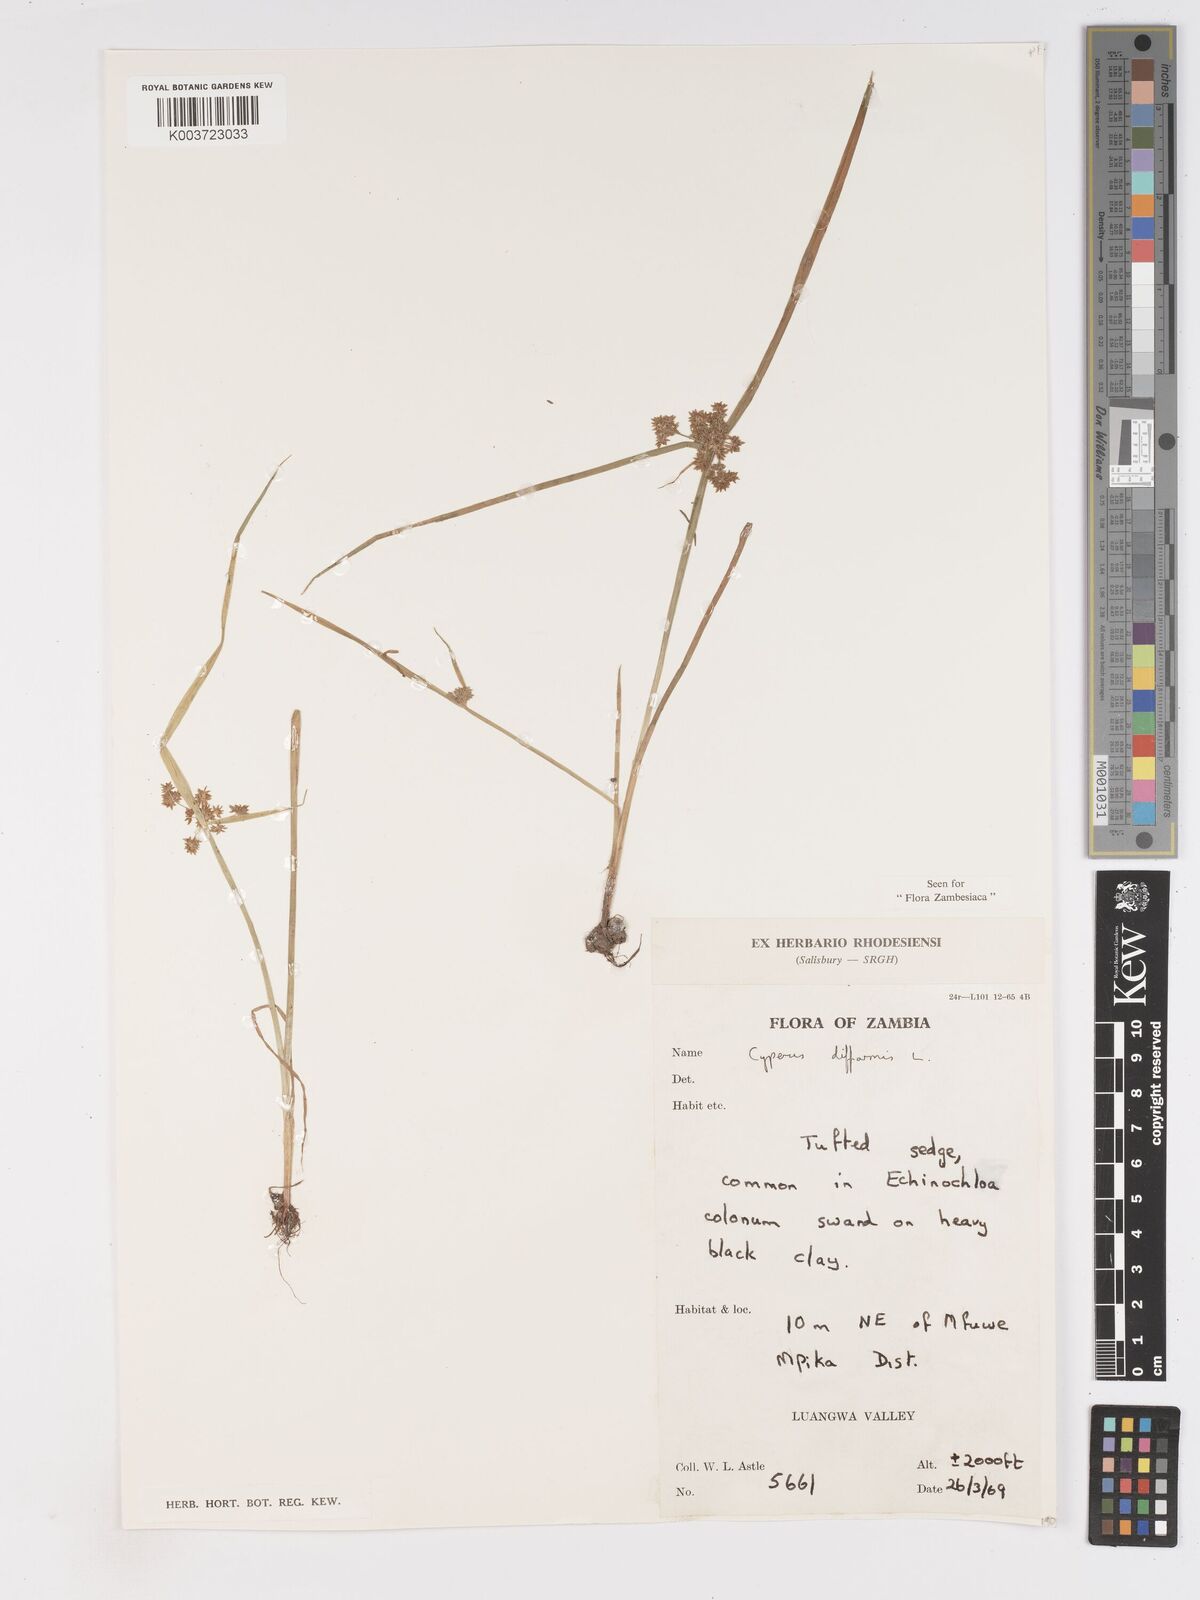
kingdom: Plantae
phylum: Tracheophyta
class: Liliopsida
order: Poales
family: Cyperaceae
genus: Cyperus
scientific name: Cyperus difformis
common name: Variable flatsedge
